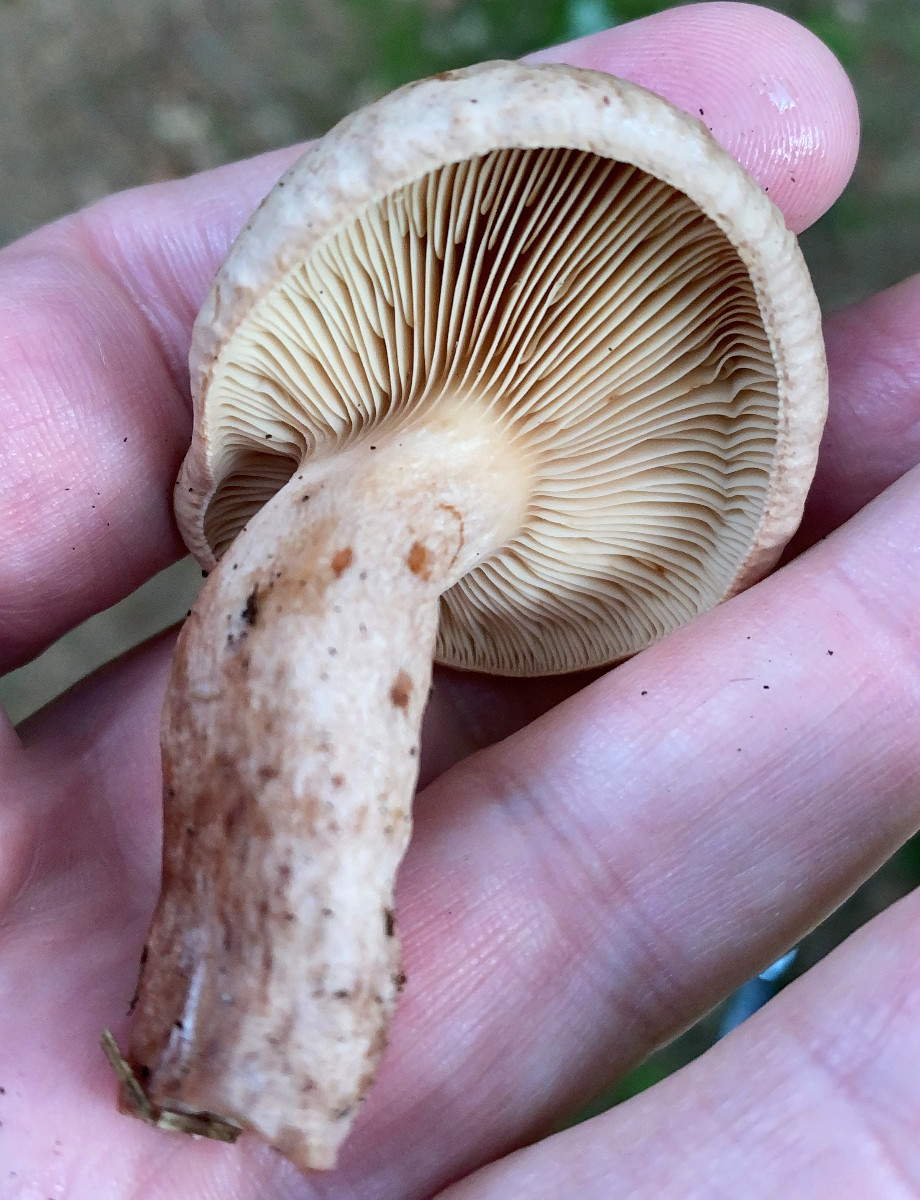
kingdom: Fungi
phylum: Basidiomycota
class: Agaricomycetes
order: Russulales
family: Russulaceae
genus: Lactarius
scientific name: Lactarius quietus
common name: ege-mælkehat
